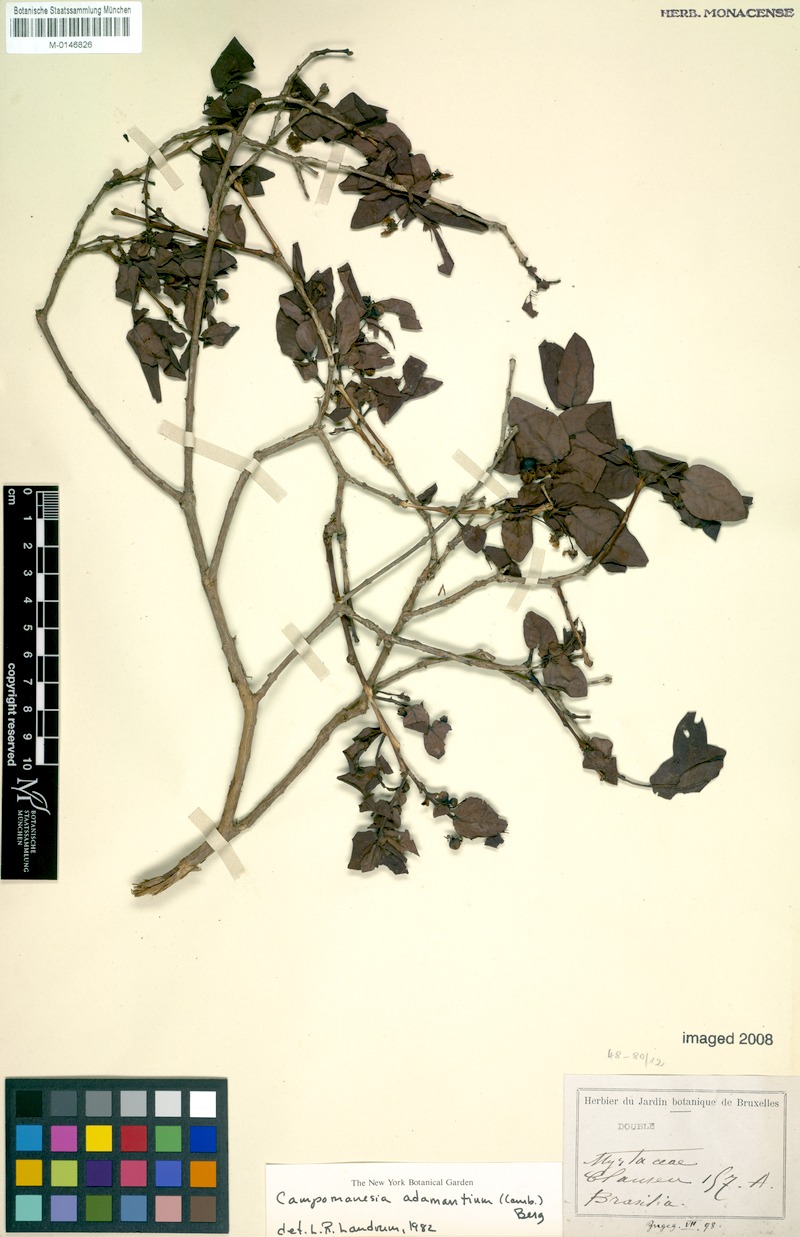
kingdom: Plantae
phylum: Tracheophyta
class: Magnoliopsida
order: Myrtales
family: Myrtaceae
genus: Campomanesia
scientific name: Campomanesia adamantium
